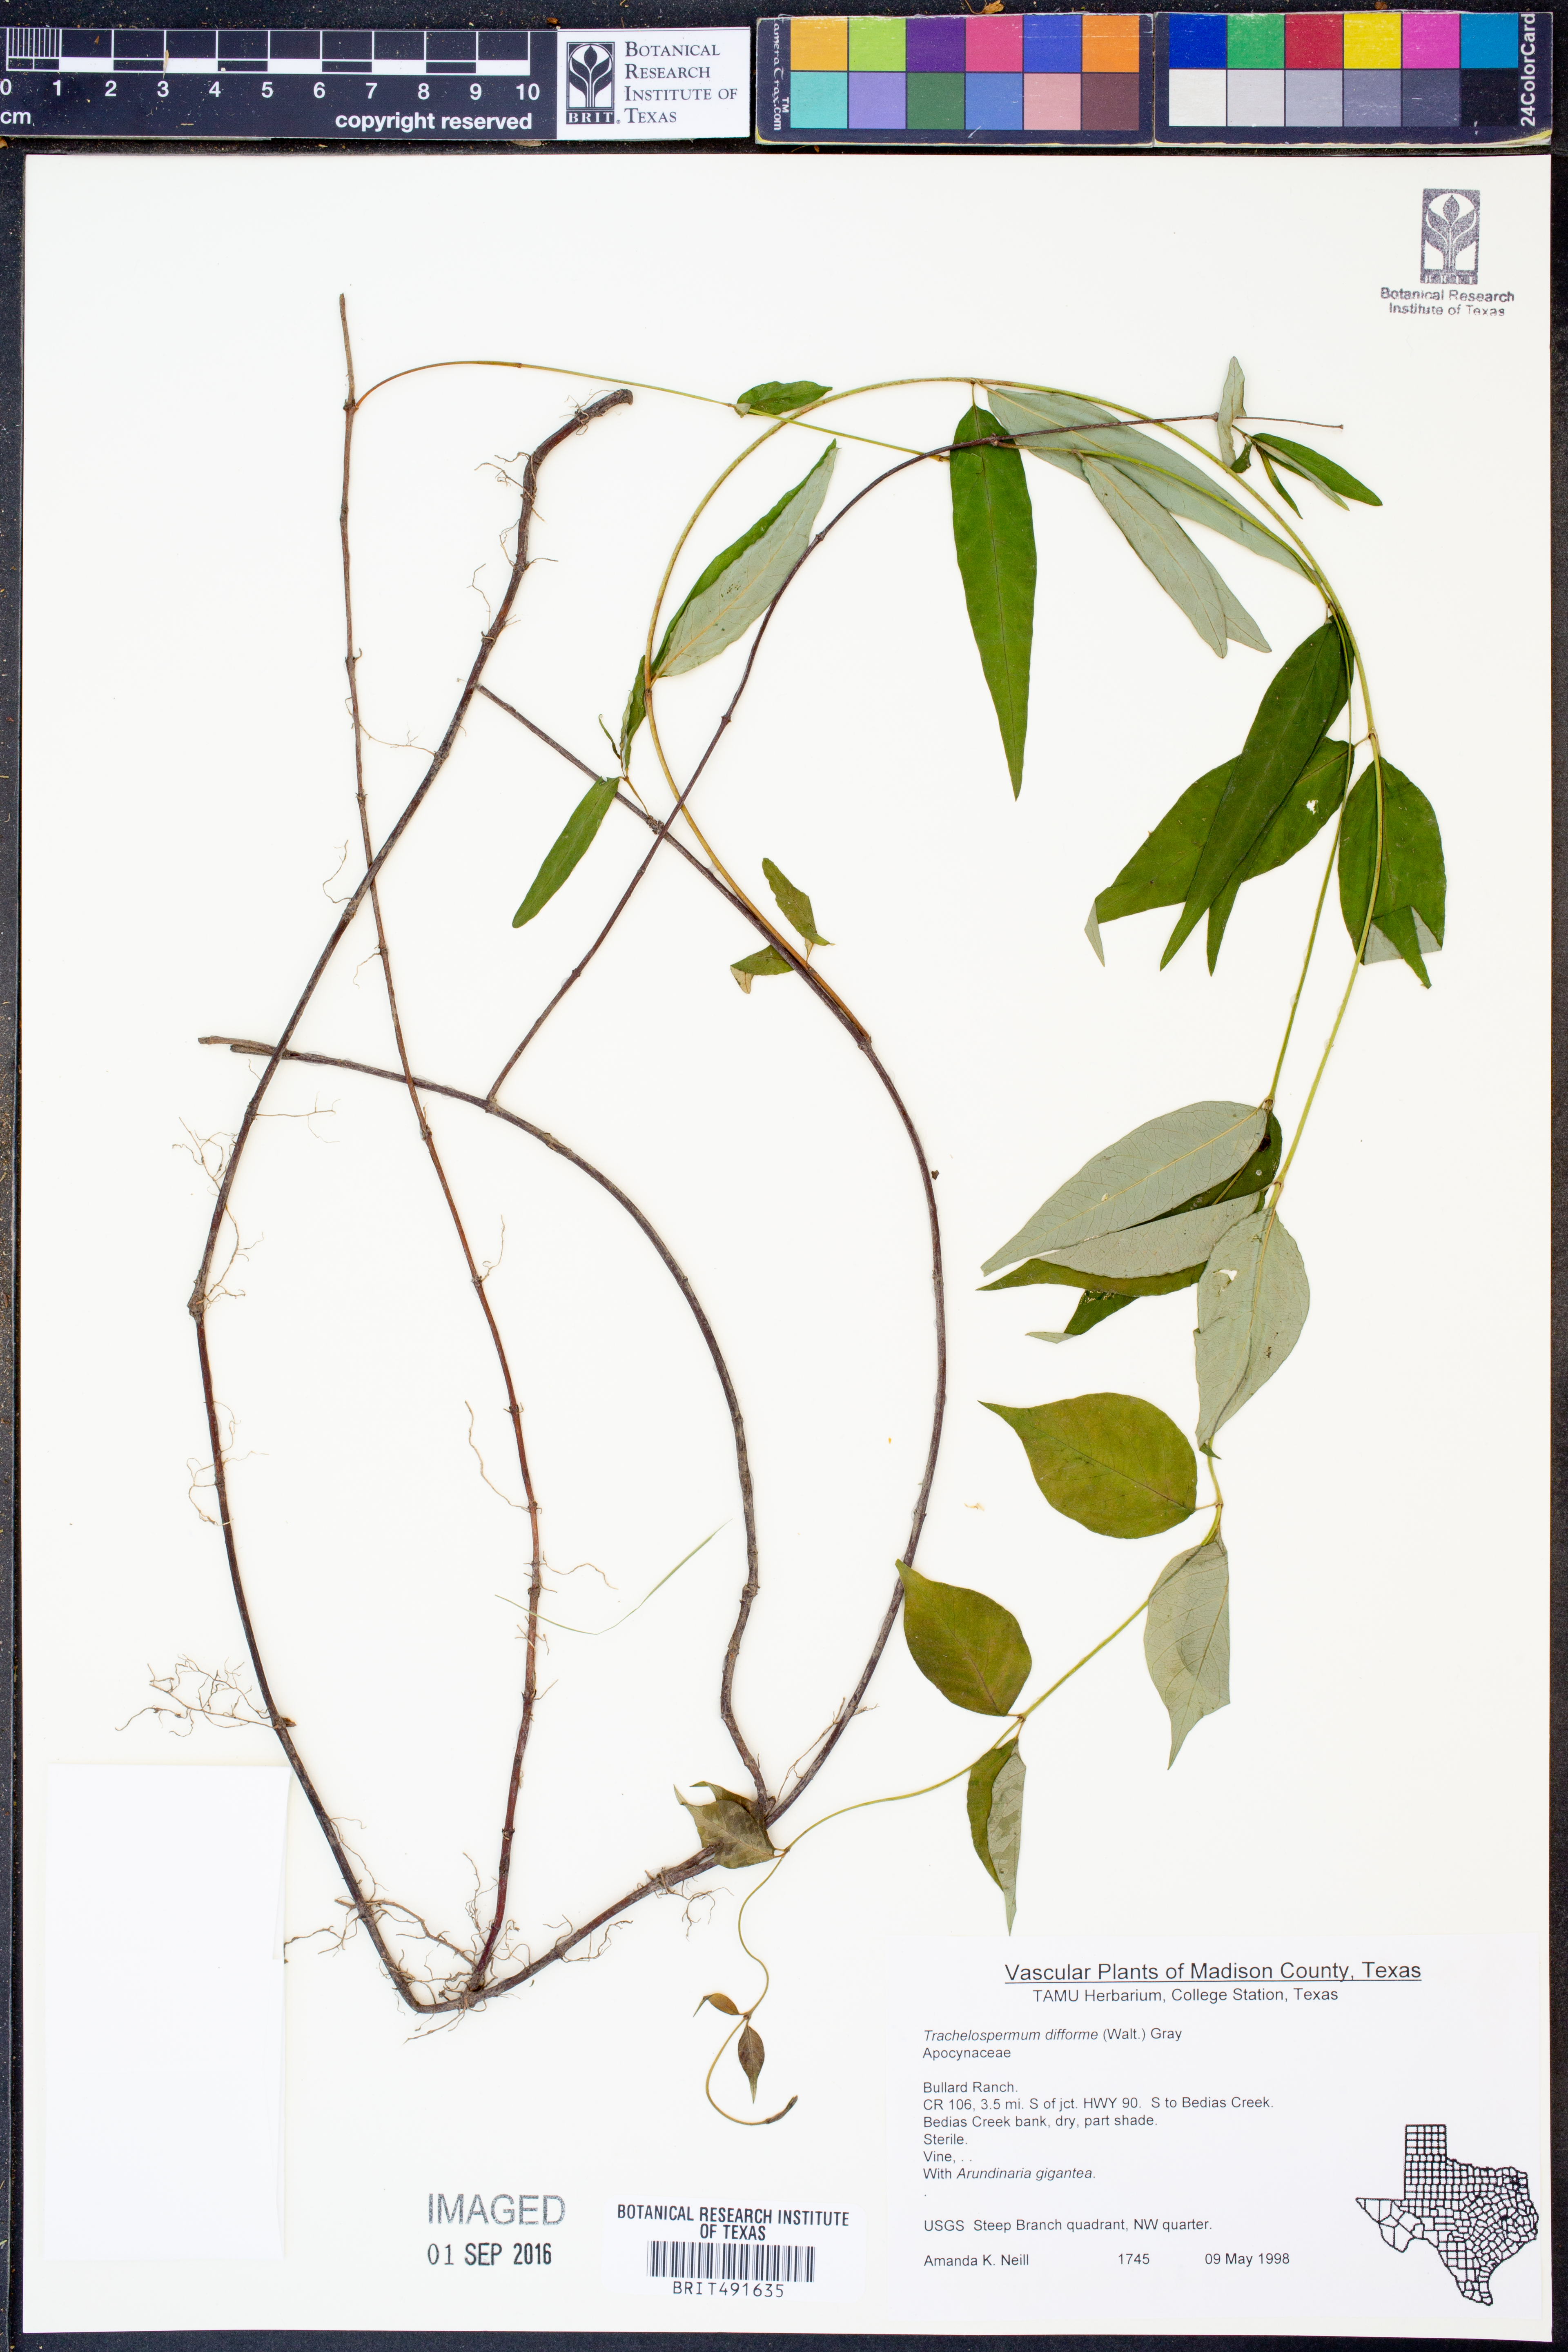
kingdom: Plantae
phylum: Tracheophyta
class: Magnoliopsida
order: Gentianales
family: Apocynaceae
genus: Thyrsanthella
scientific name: Thyrsanthella difformis
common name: Climbing dogbane
